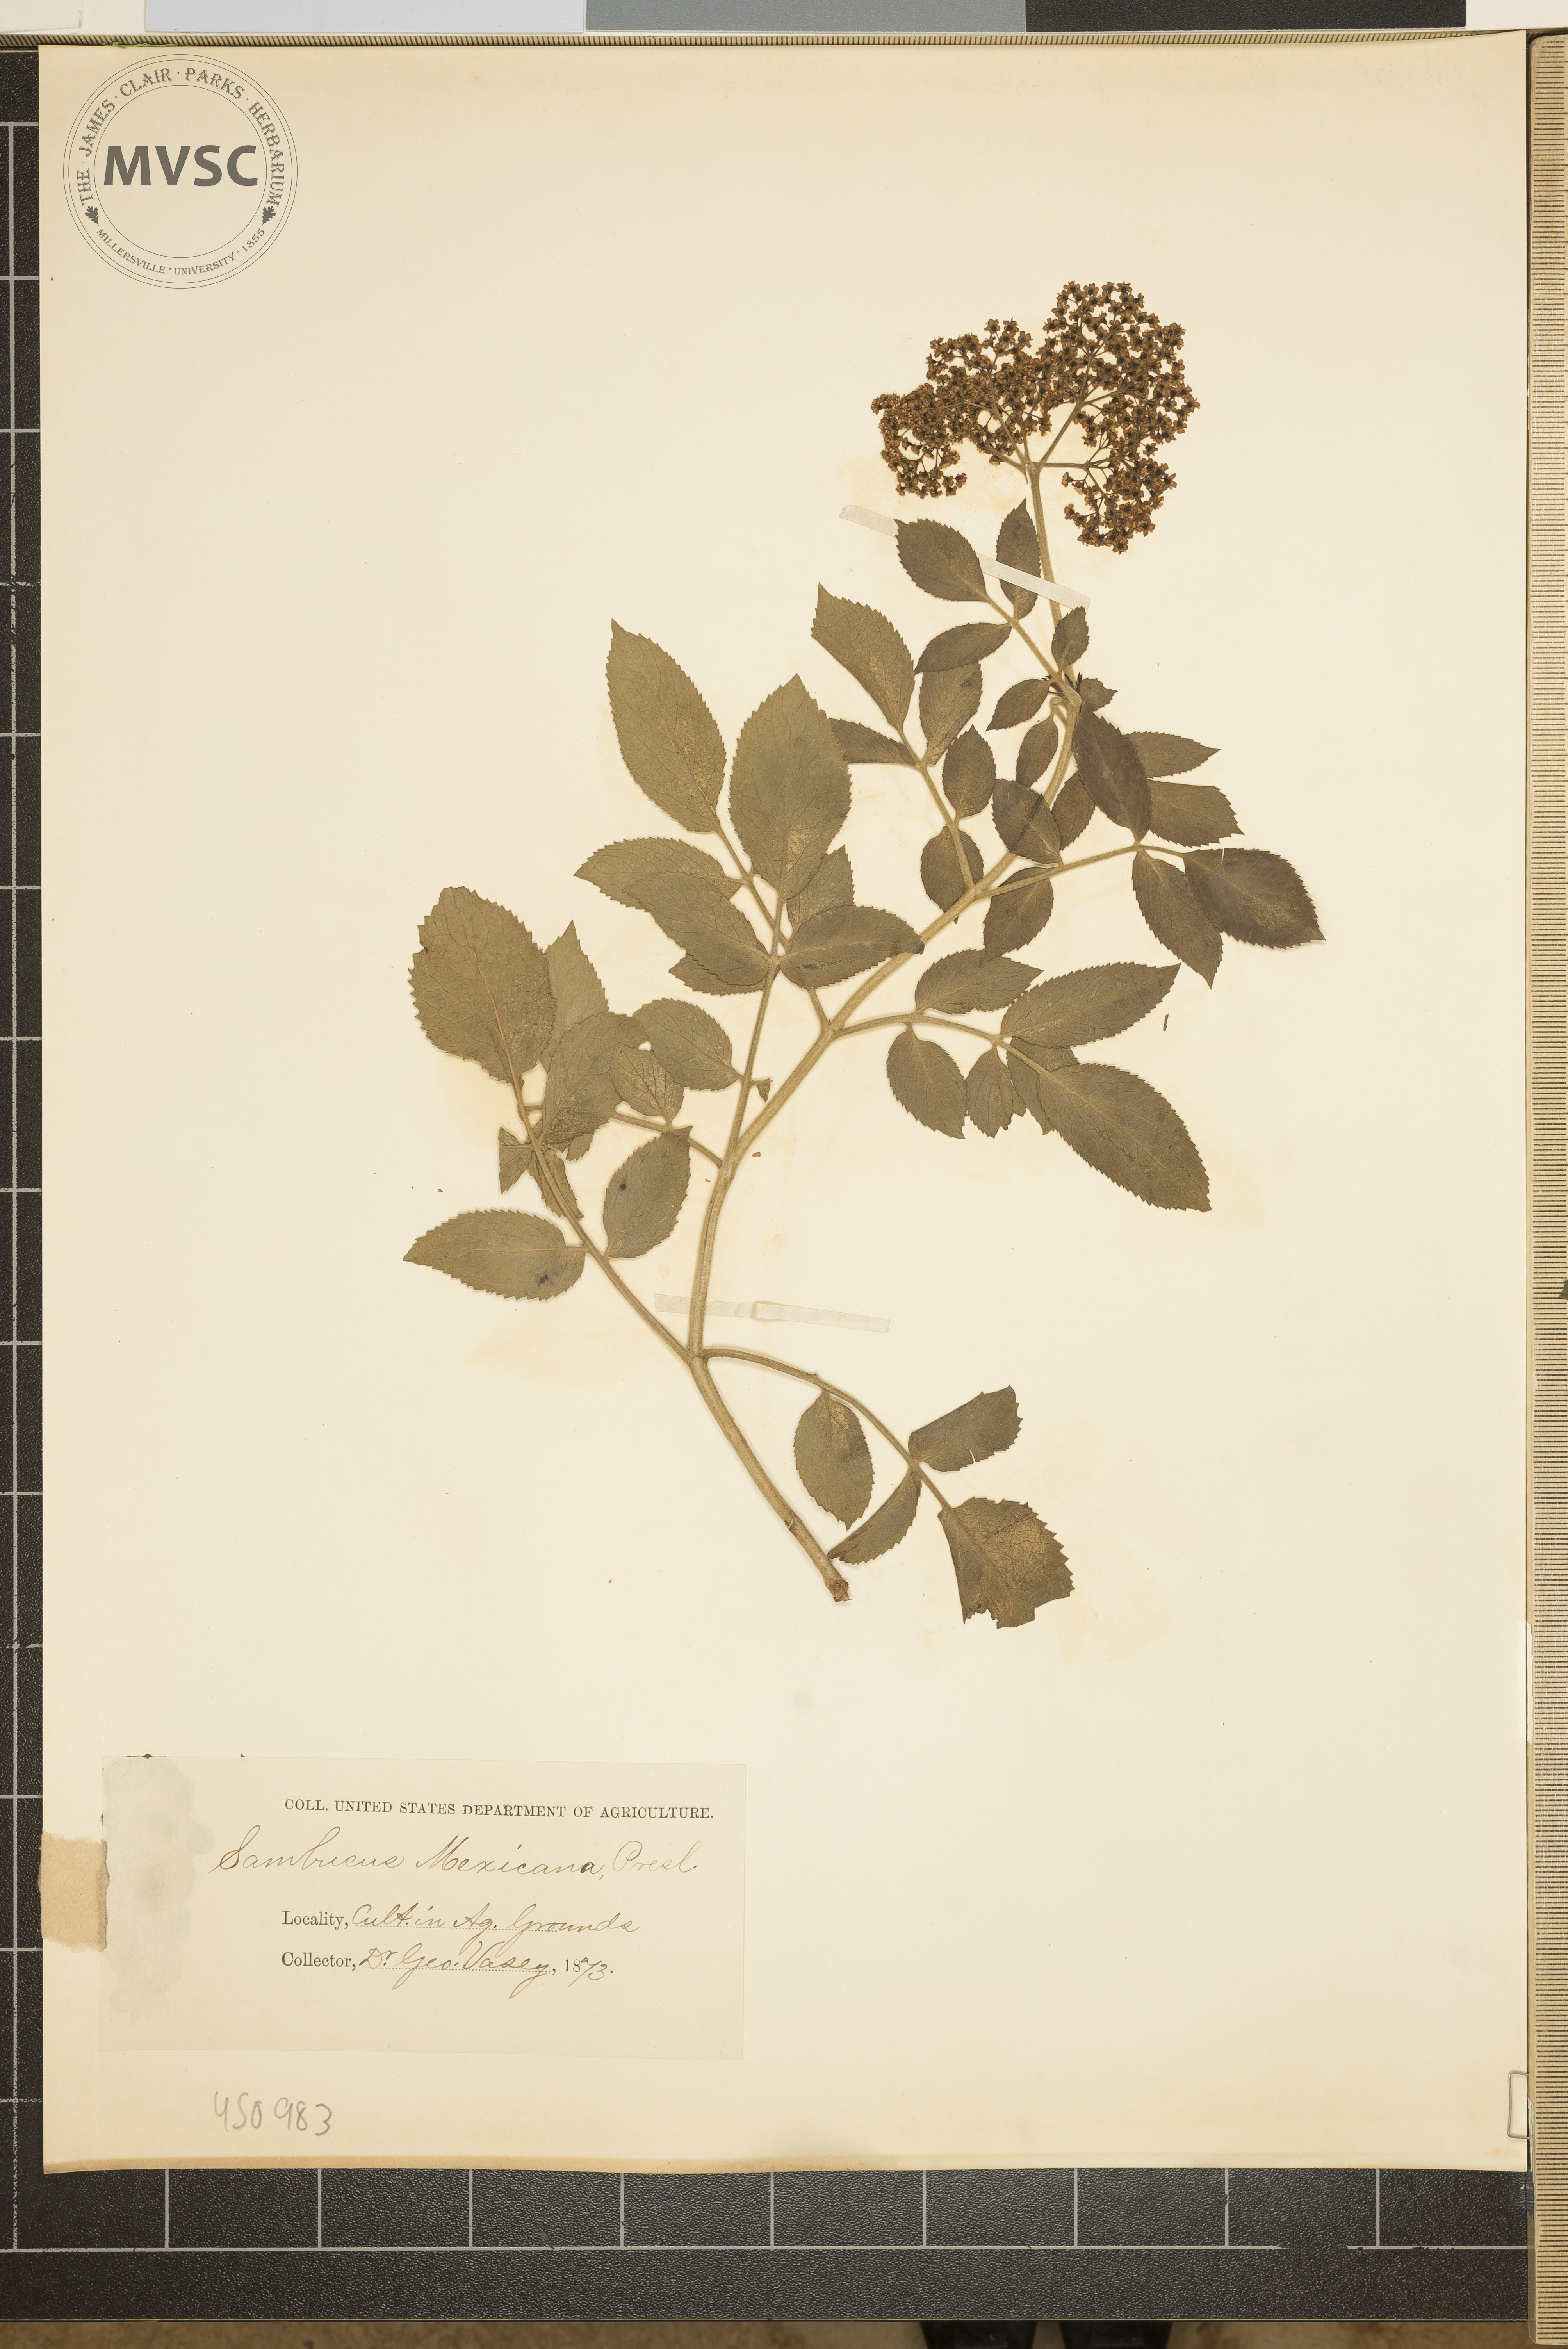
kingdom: Plantae
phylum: Tracheophyta
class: Magnoliopsida
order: Dipsacales
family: Viburnaceae
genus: Sambucus
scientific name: Sambucus cerulea
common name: Blue elder
